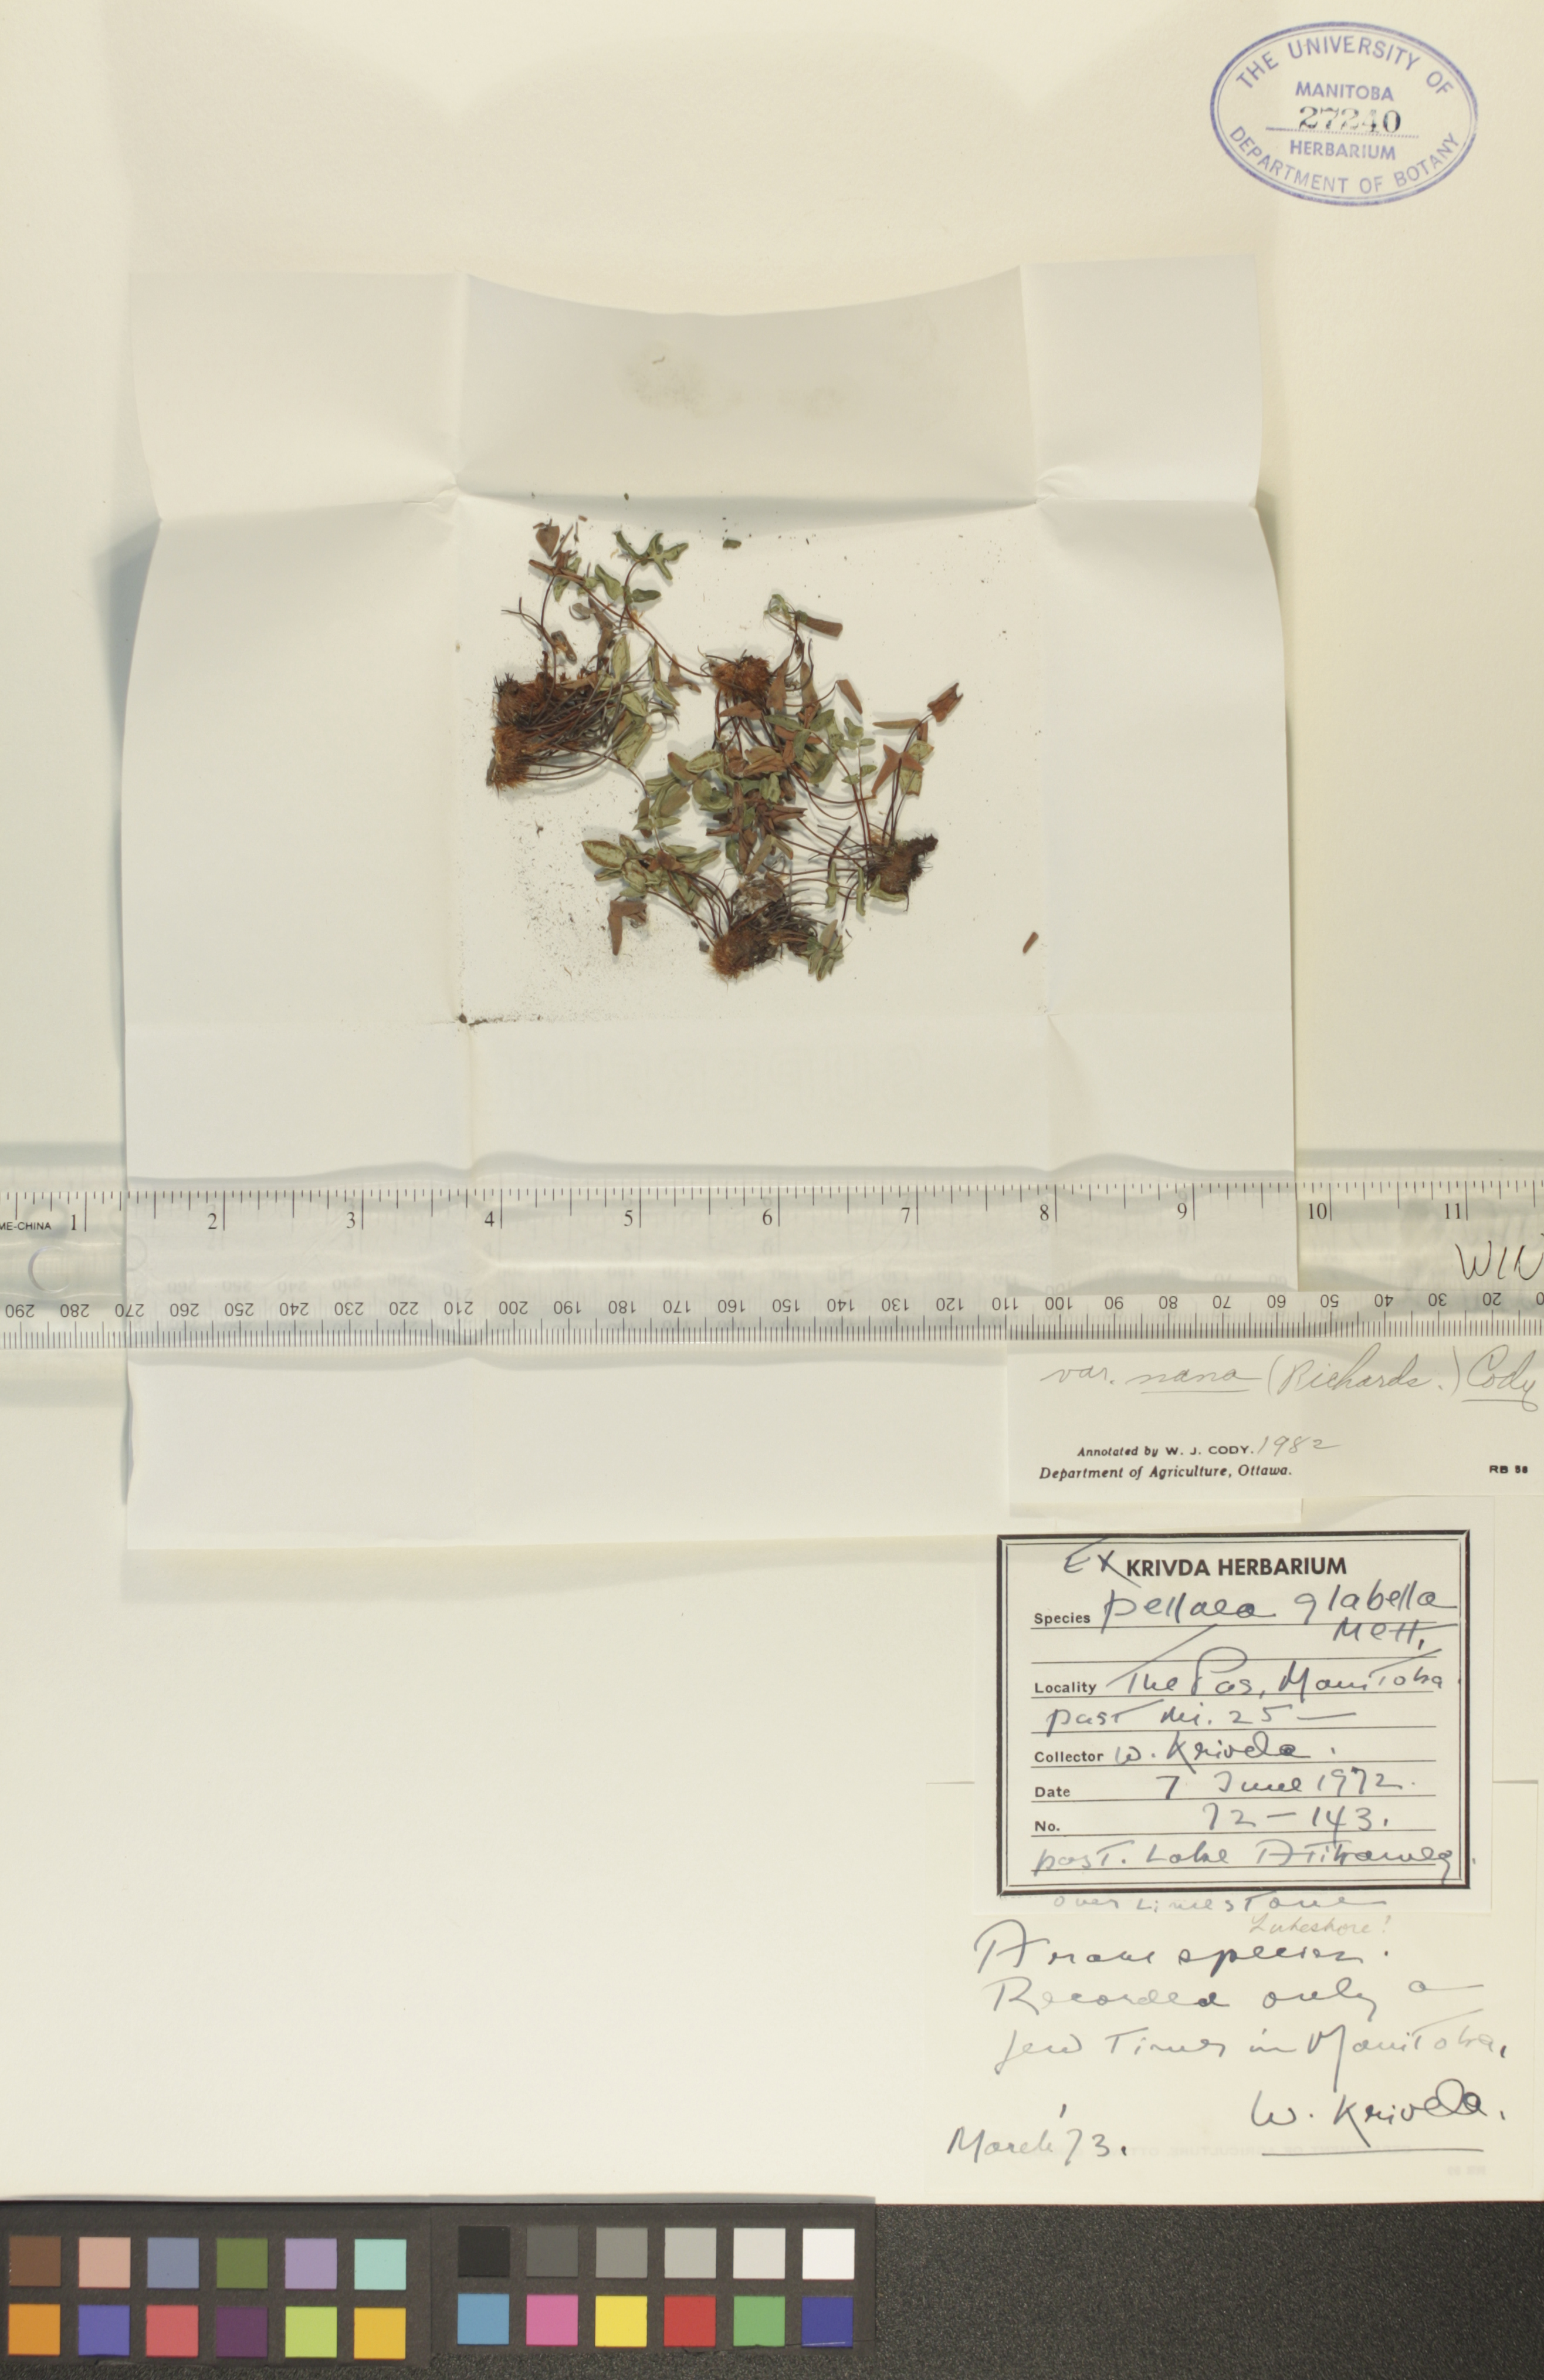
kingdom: Plantae
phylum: Tracheophyta
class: Polypodiopsida
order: Polypodiales
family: Pteridaceae
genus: Pellaea
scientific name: Pellaea glabella
